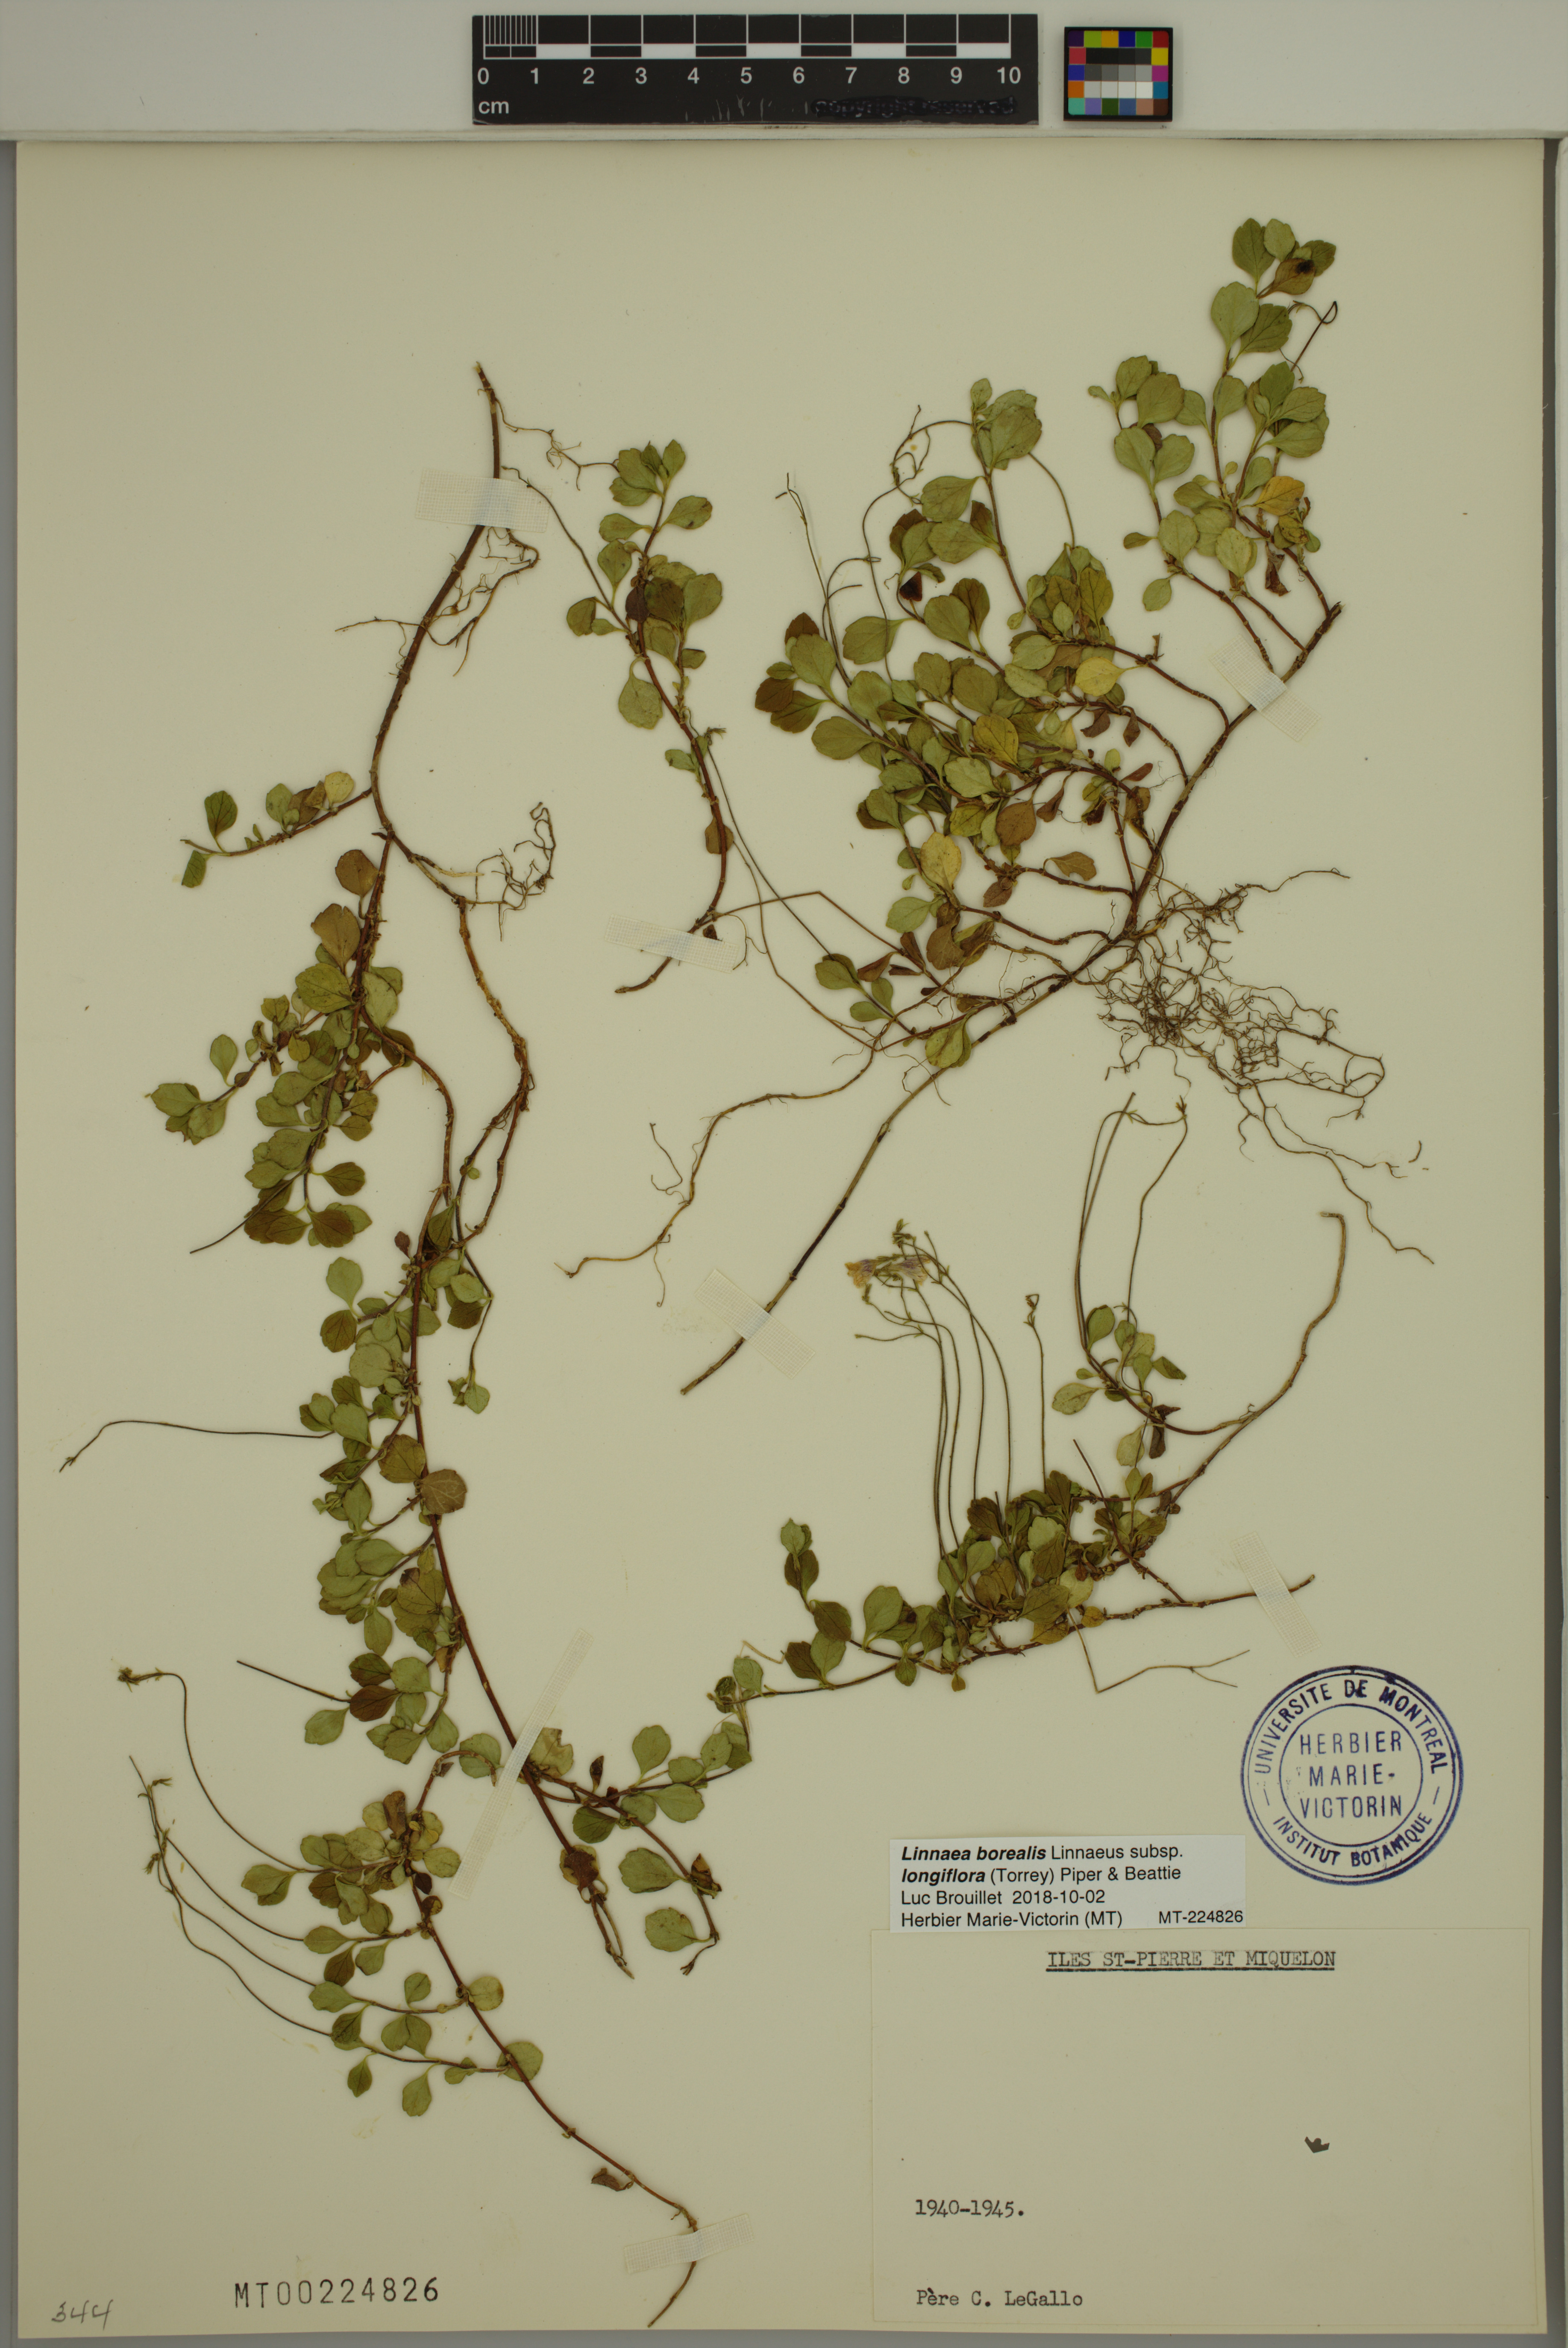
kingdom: Plantae
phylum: Tracheophyta
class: Magnoliopsida
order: Dipsacales
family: Caprifoliaceae
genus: Linnaea
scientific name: Linnaea borealis
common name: Twinflower
